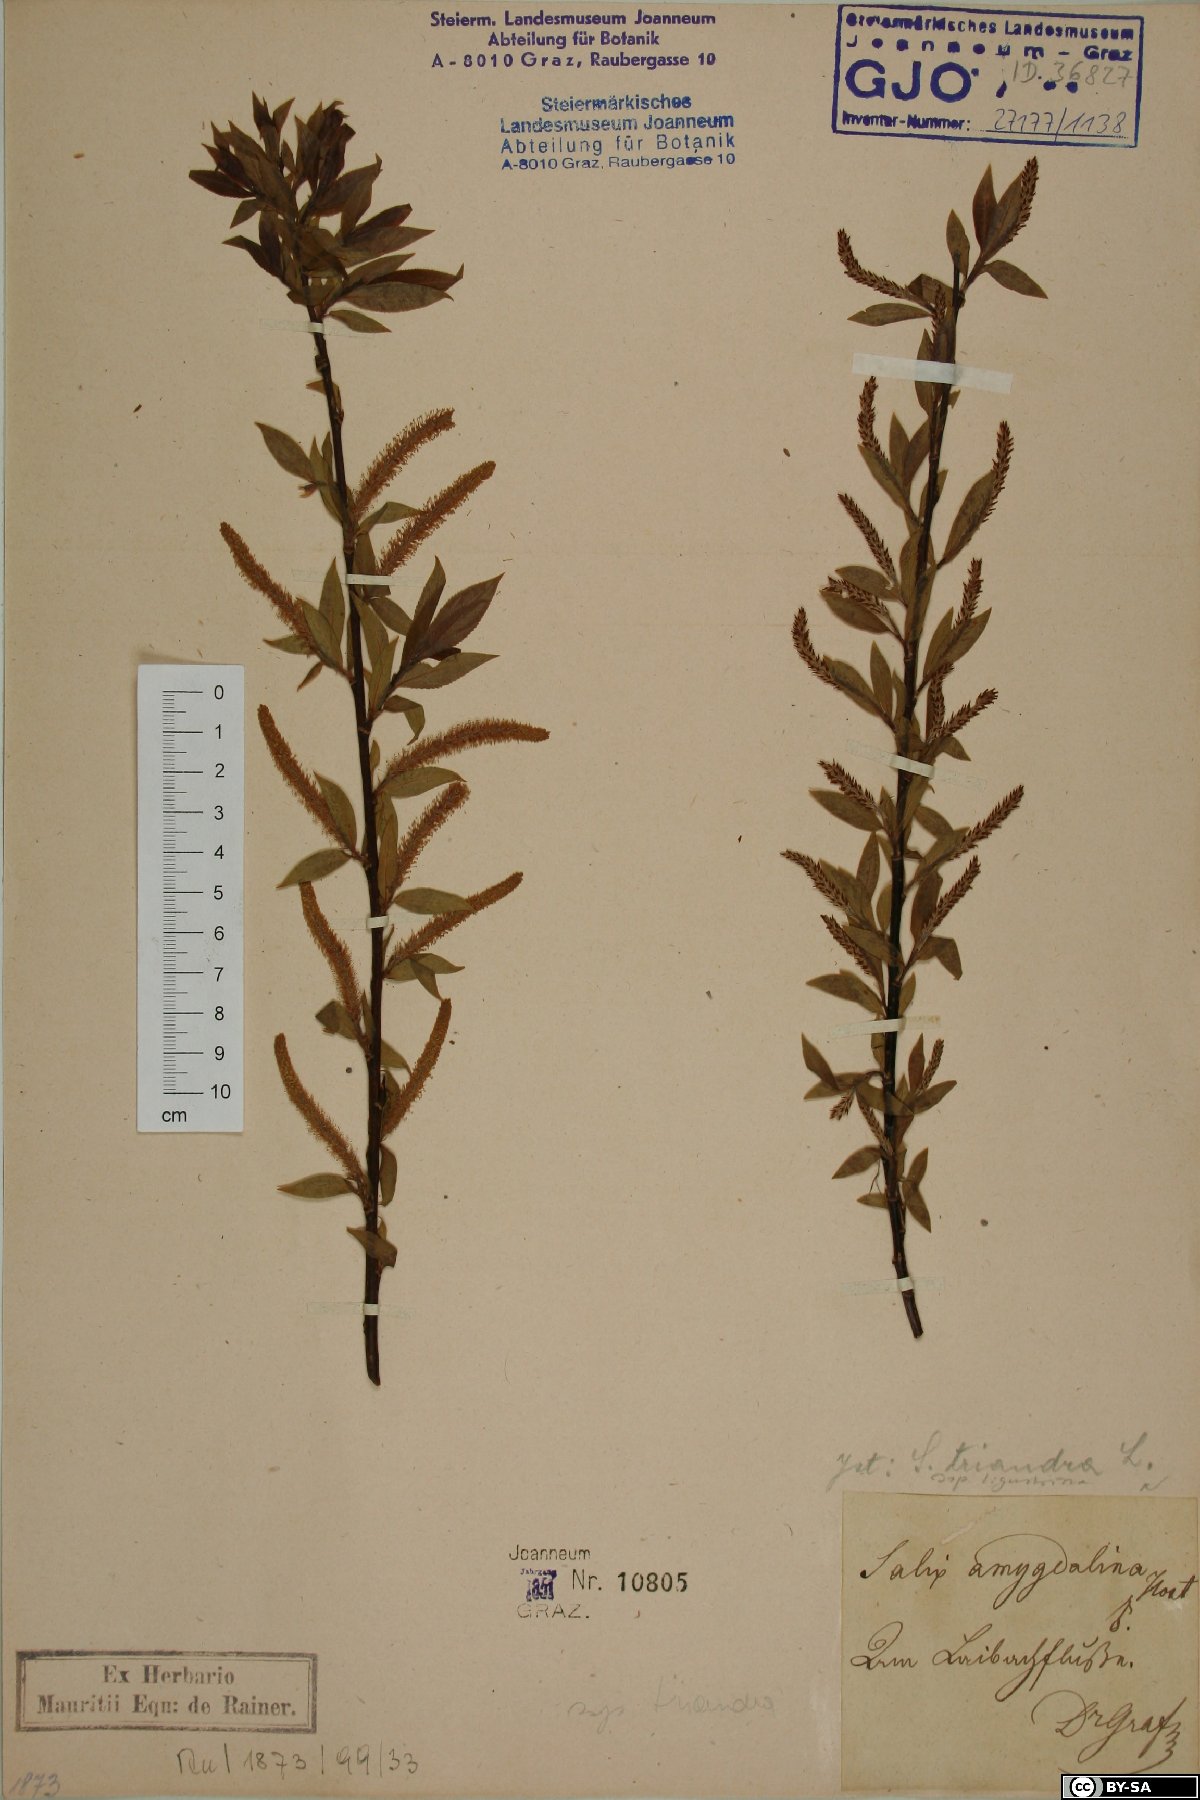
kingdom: Plantae
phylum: Tracheophyta
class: Magnoliopsida
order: Malpighiales
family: Salicaceae
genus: Salix
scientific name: Salix triandra
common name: Almond willow
